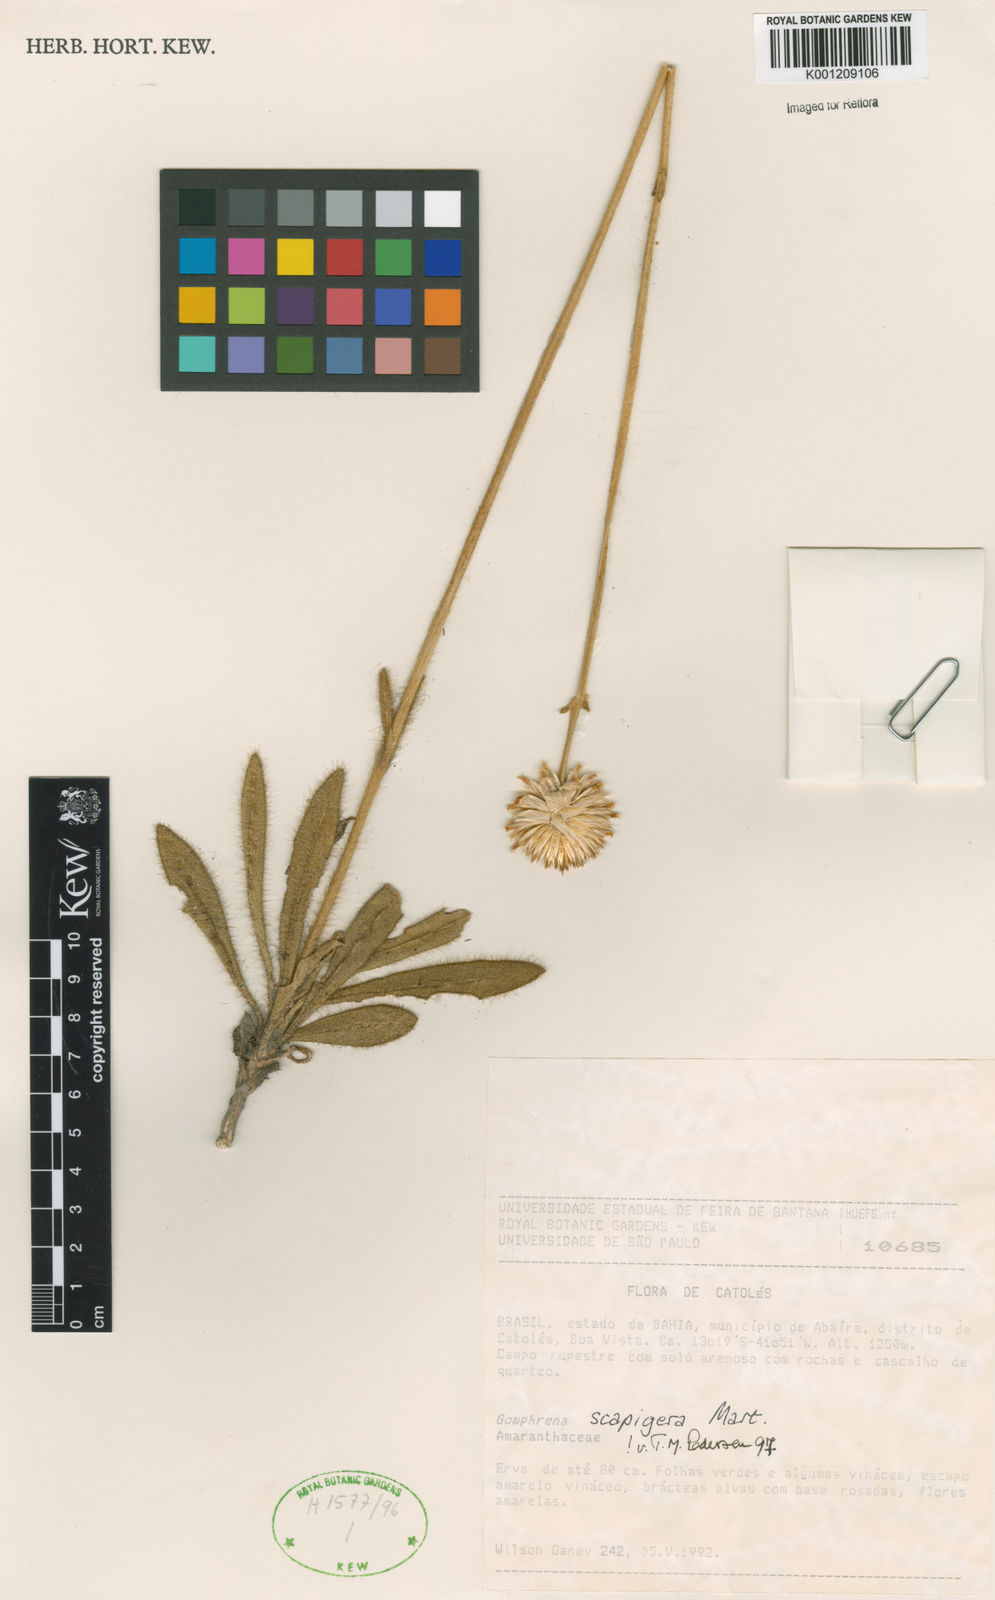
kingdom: Plantae
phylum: Tracheophyta
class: Magnoliopsida
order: Caryophyllales
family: Amaranthaceae
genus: Gomphrena
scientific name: Gomphrena scapigera
